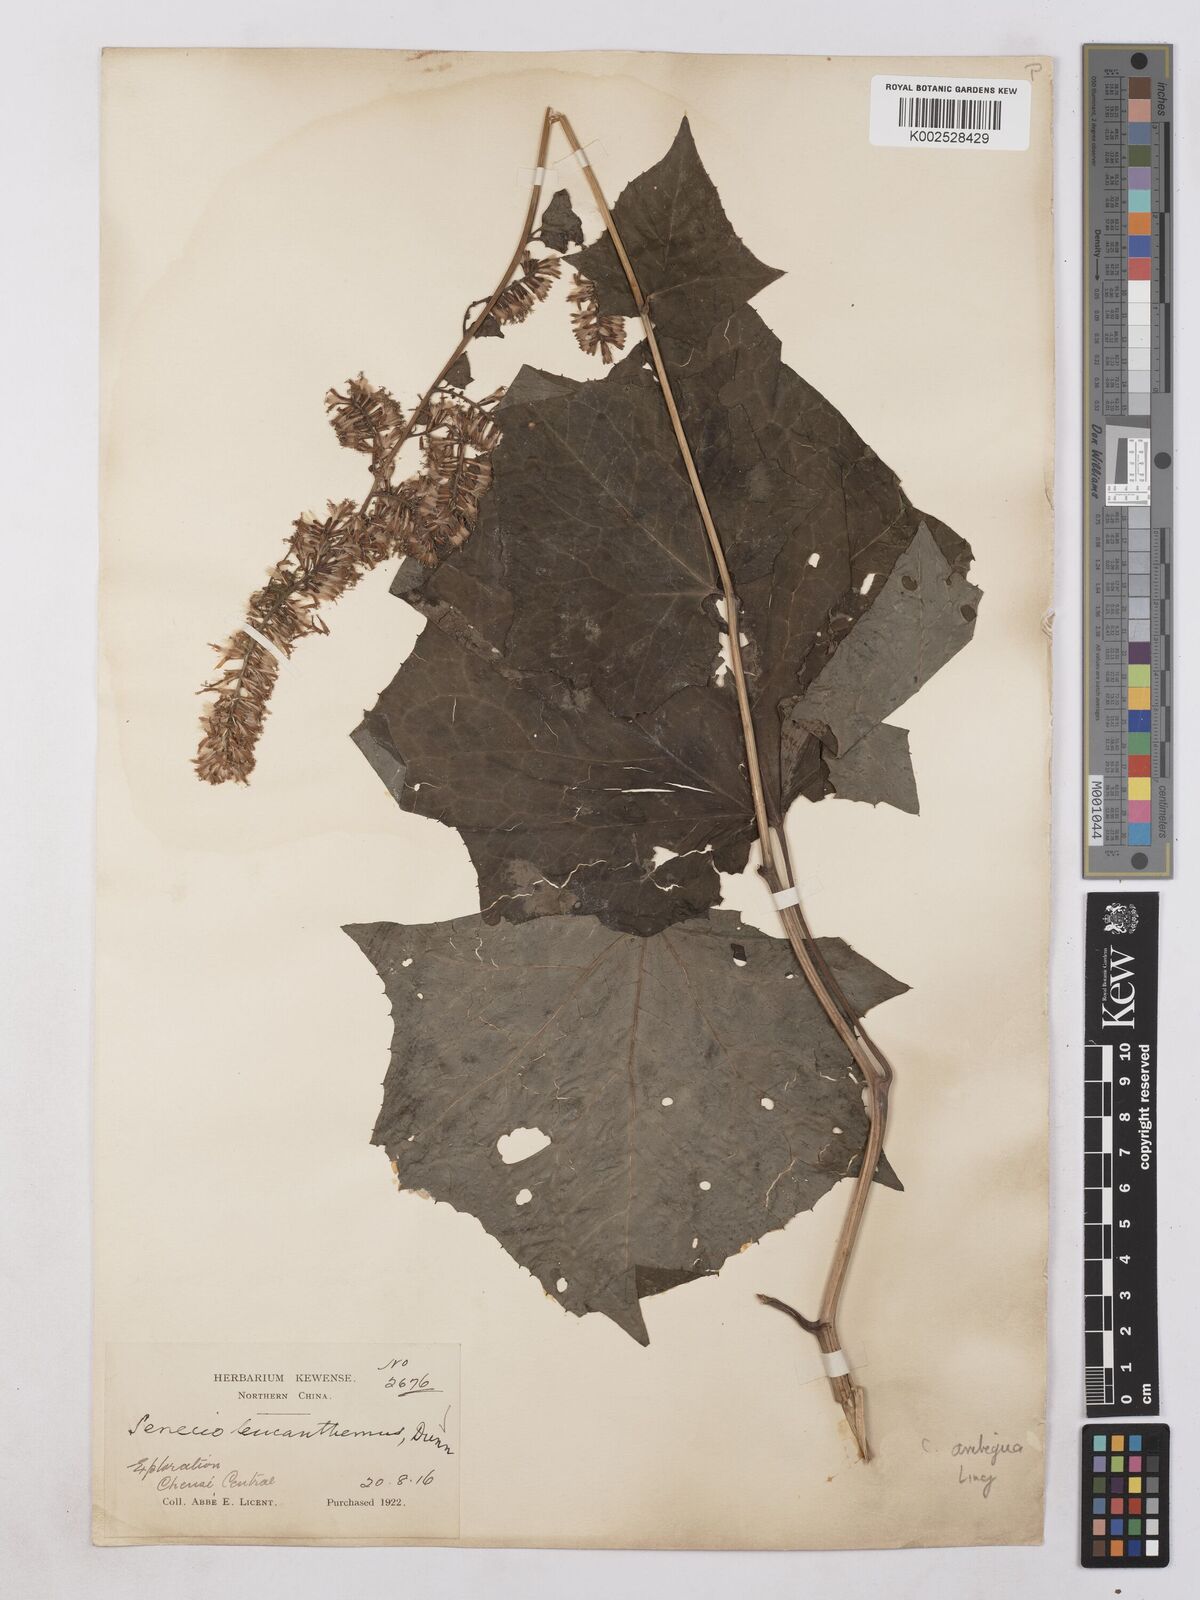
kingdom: Plantae
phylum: Tracheophyta
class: Magnoliopsida
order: Asterales
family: Asteraceae
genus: Parasenecio
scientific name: Parasenecio ambiguus
